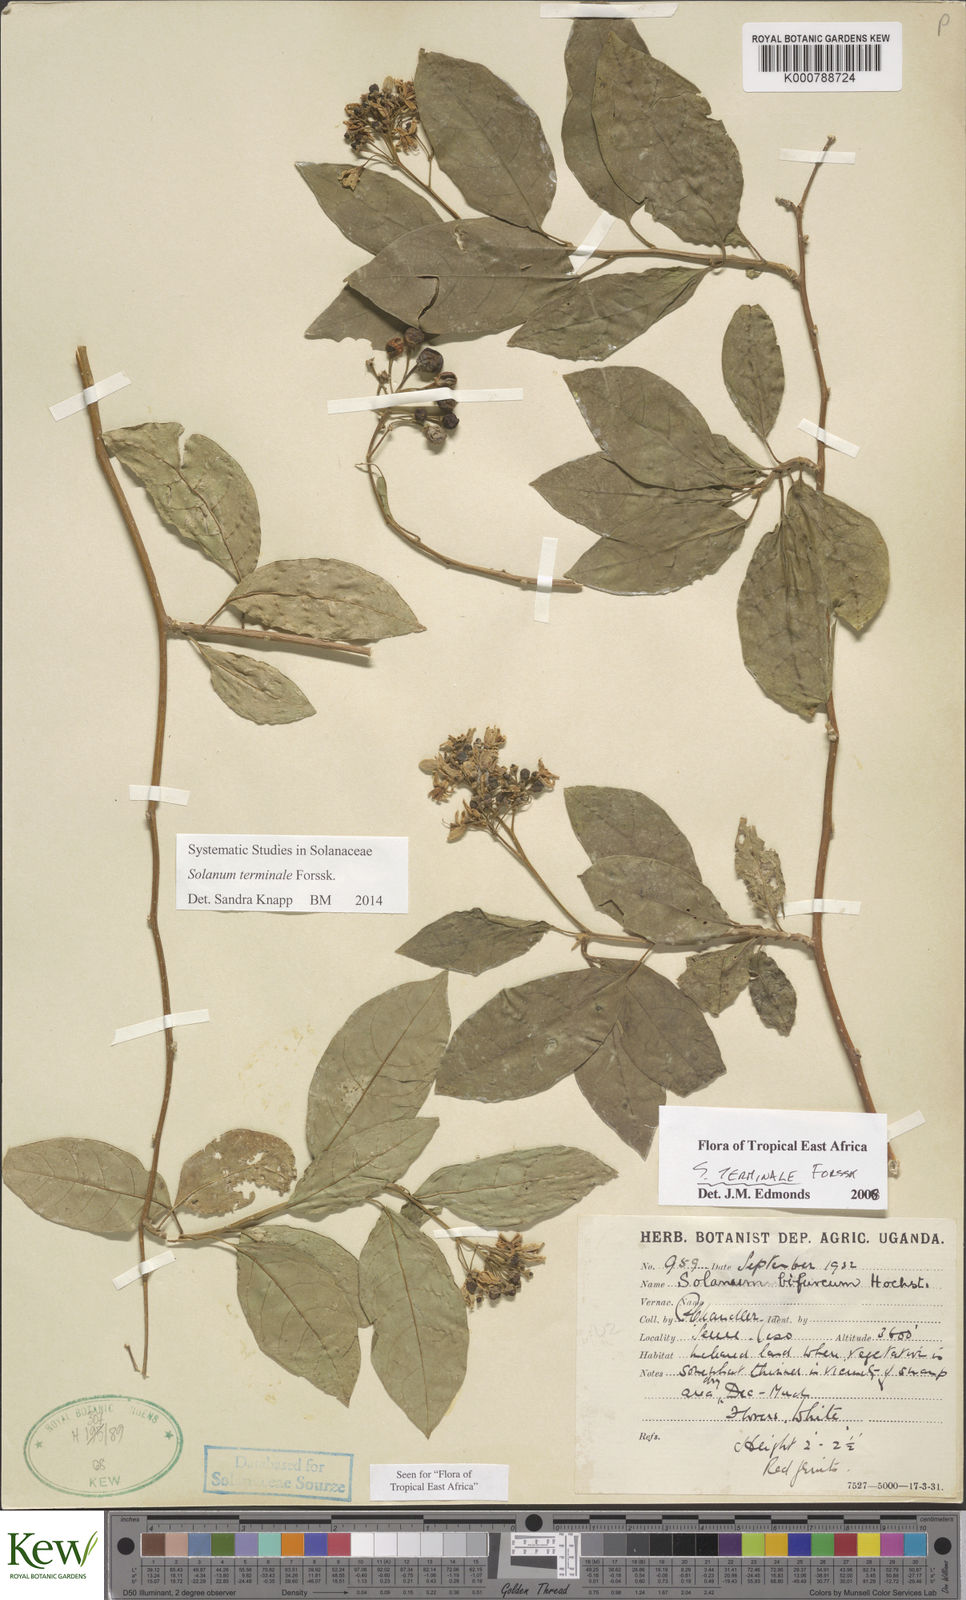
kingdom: Plantae
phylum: Tracheophyta
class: Magnoliopsida
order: Solanales
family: Solanaceae
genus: Solanum
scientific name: Solanum terminale
